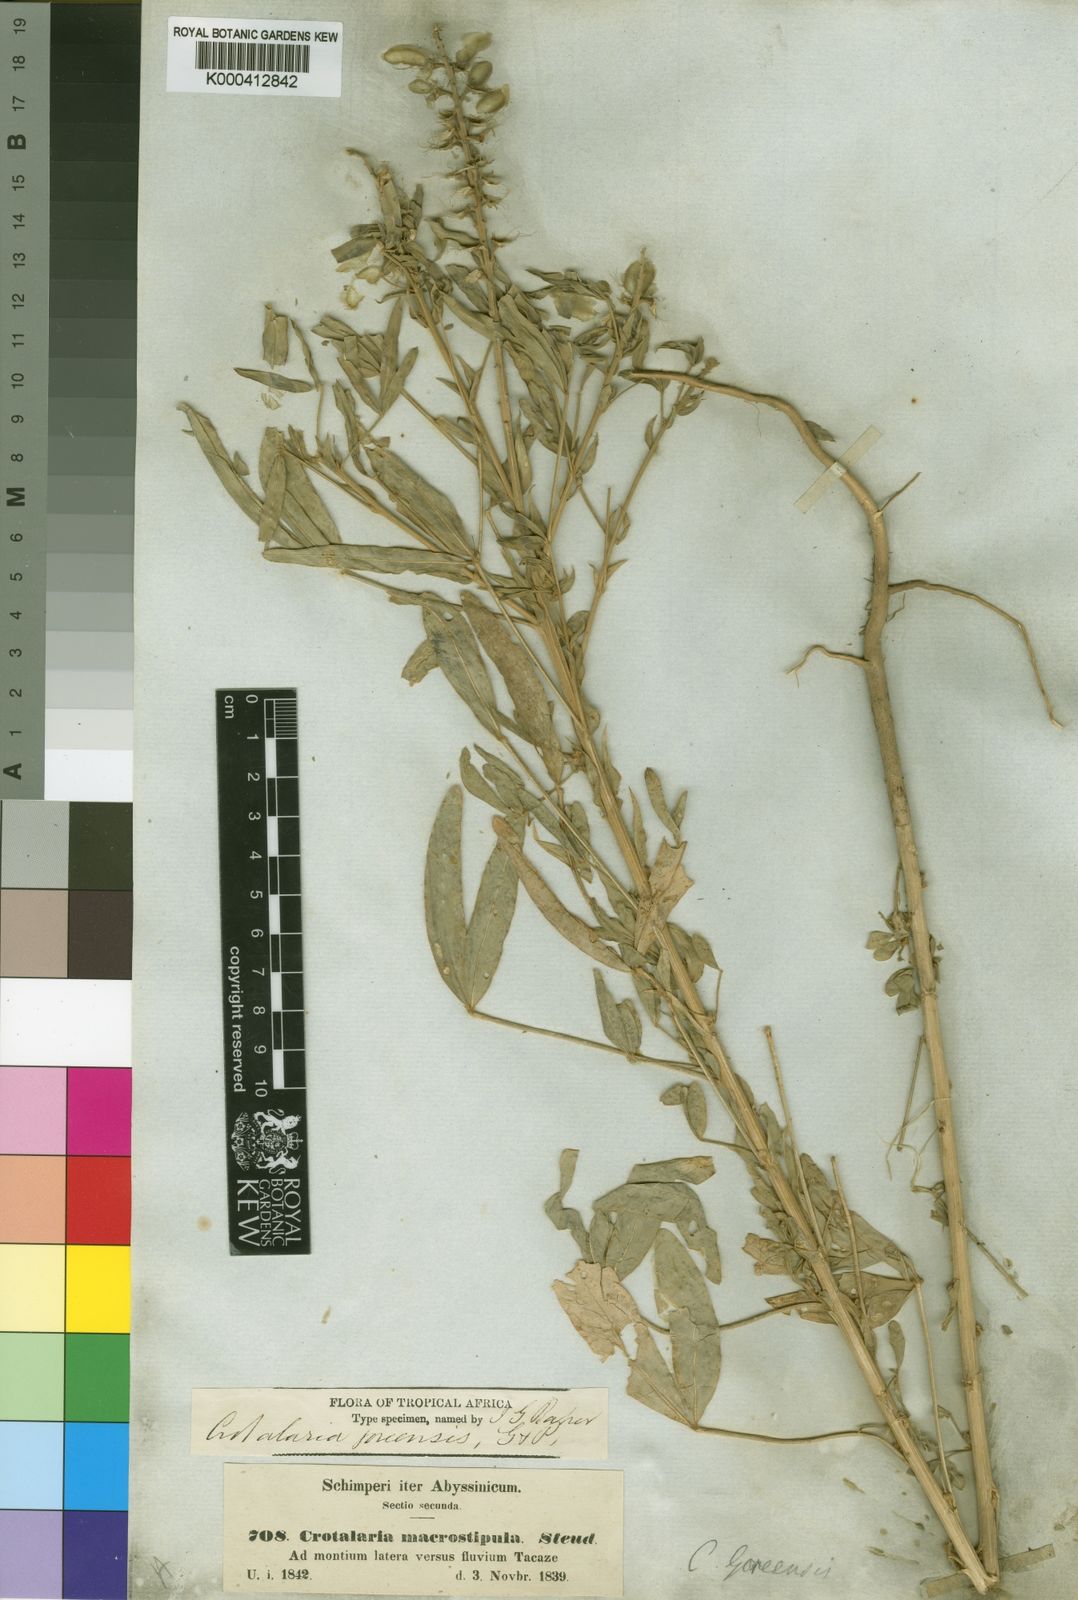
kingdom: Plantae
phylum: Tracheophyta
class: Magnoliopsida
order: Fabales
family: Fabaceae
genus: Crotalaria
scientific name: Crotalaria goreensis
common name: Gambia-pea
